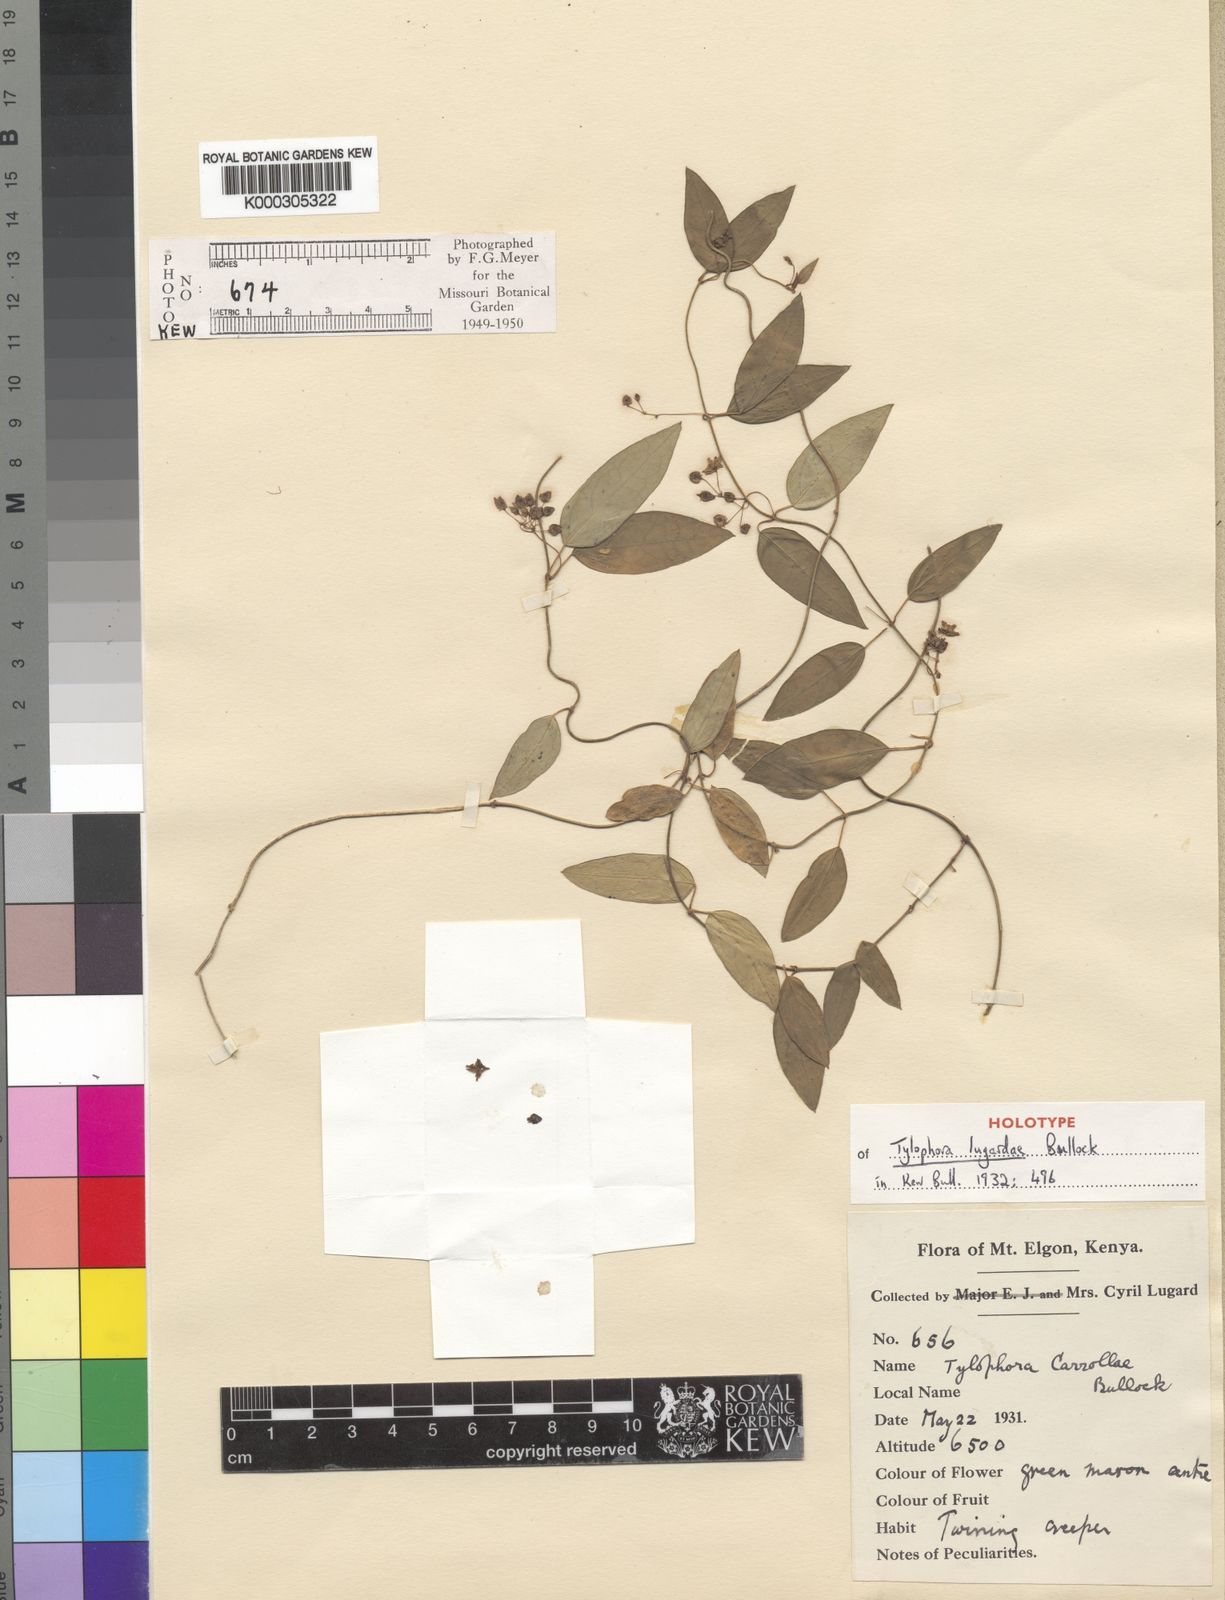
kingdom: Plantae
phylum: Tracheophyta
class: Magnoliopsida
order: Gentianales
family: Apocynaceae
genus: Vincetoxicum
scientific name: Vincetoxicum lugardiae
